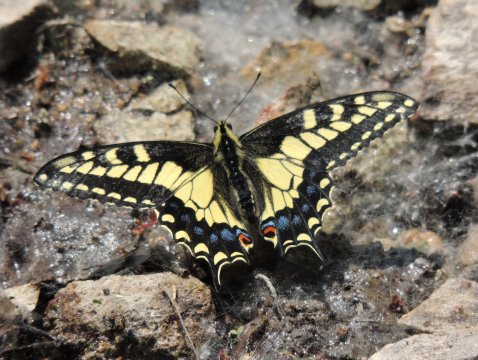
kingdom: Animalia
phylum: Arthropoda
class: Insecta
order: Lepidoptera
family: Papilionidae
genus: Papilio
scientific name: Papilio machaon
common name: Old World Swallowtail
